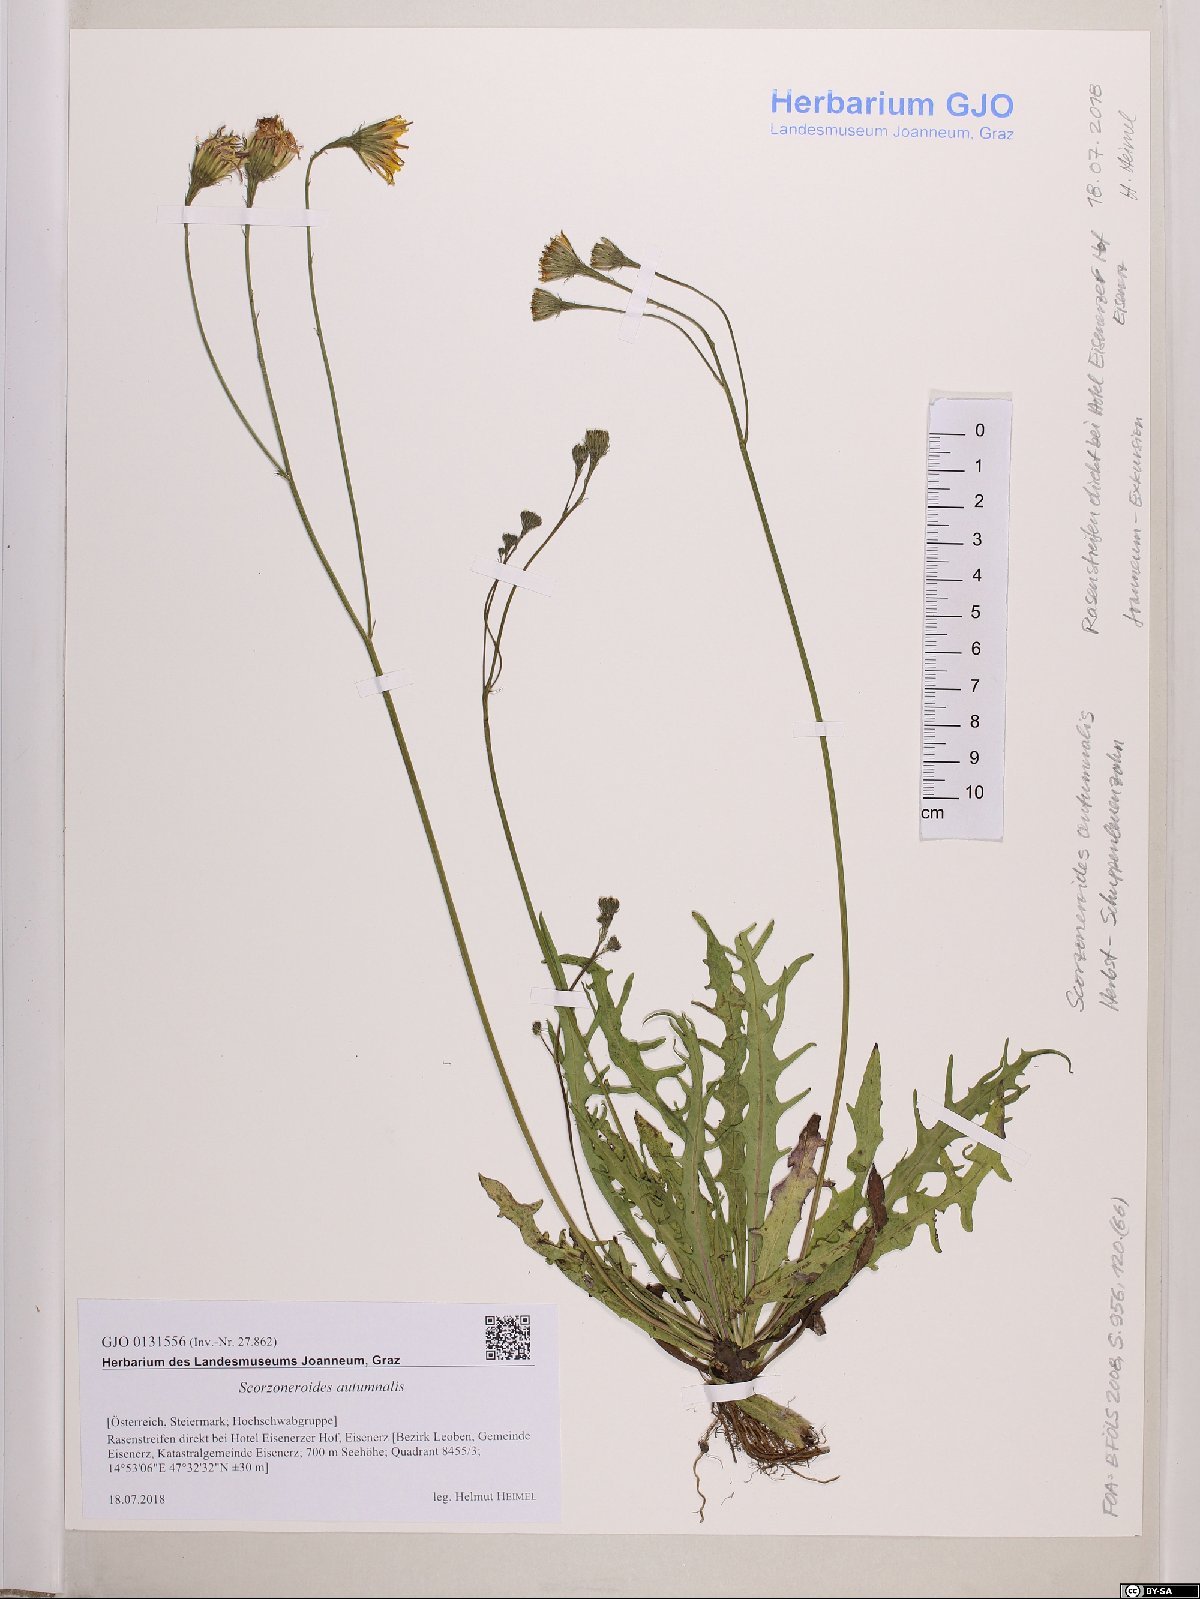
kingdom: Plantae
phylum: Tracheophyta
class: Magnoliopsida
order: Asterales
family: Asteraceae
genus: Scorzoneroides
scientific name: Scorzoneroides autumnalis
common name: Autumn hawkbit
